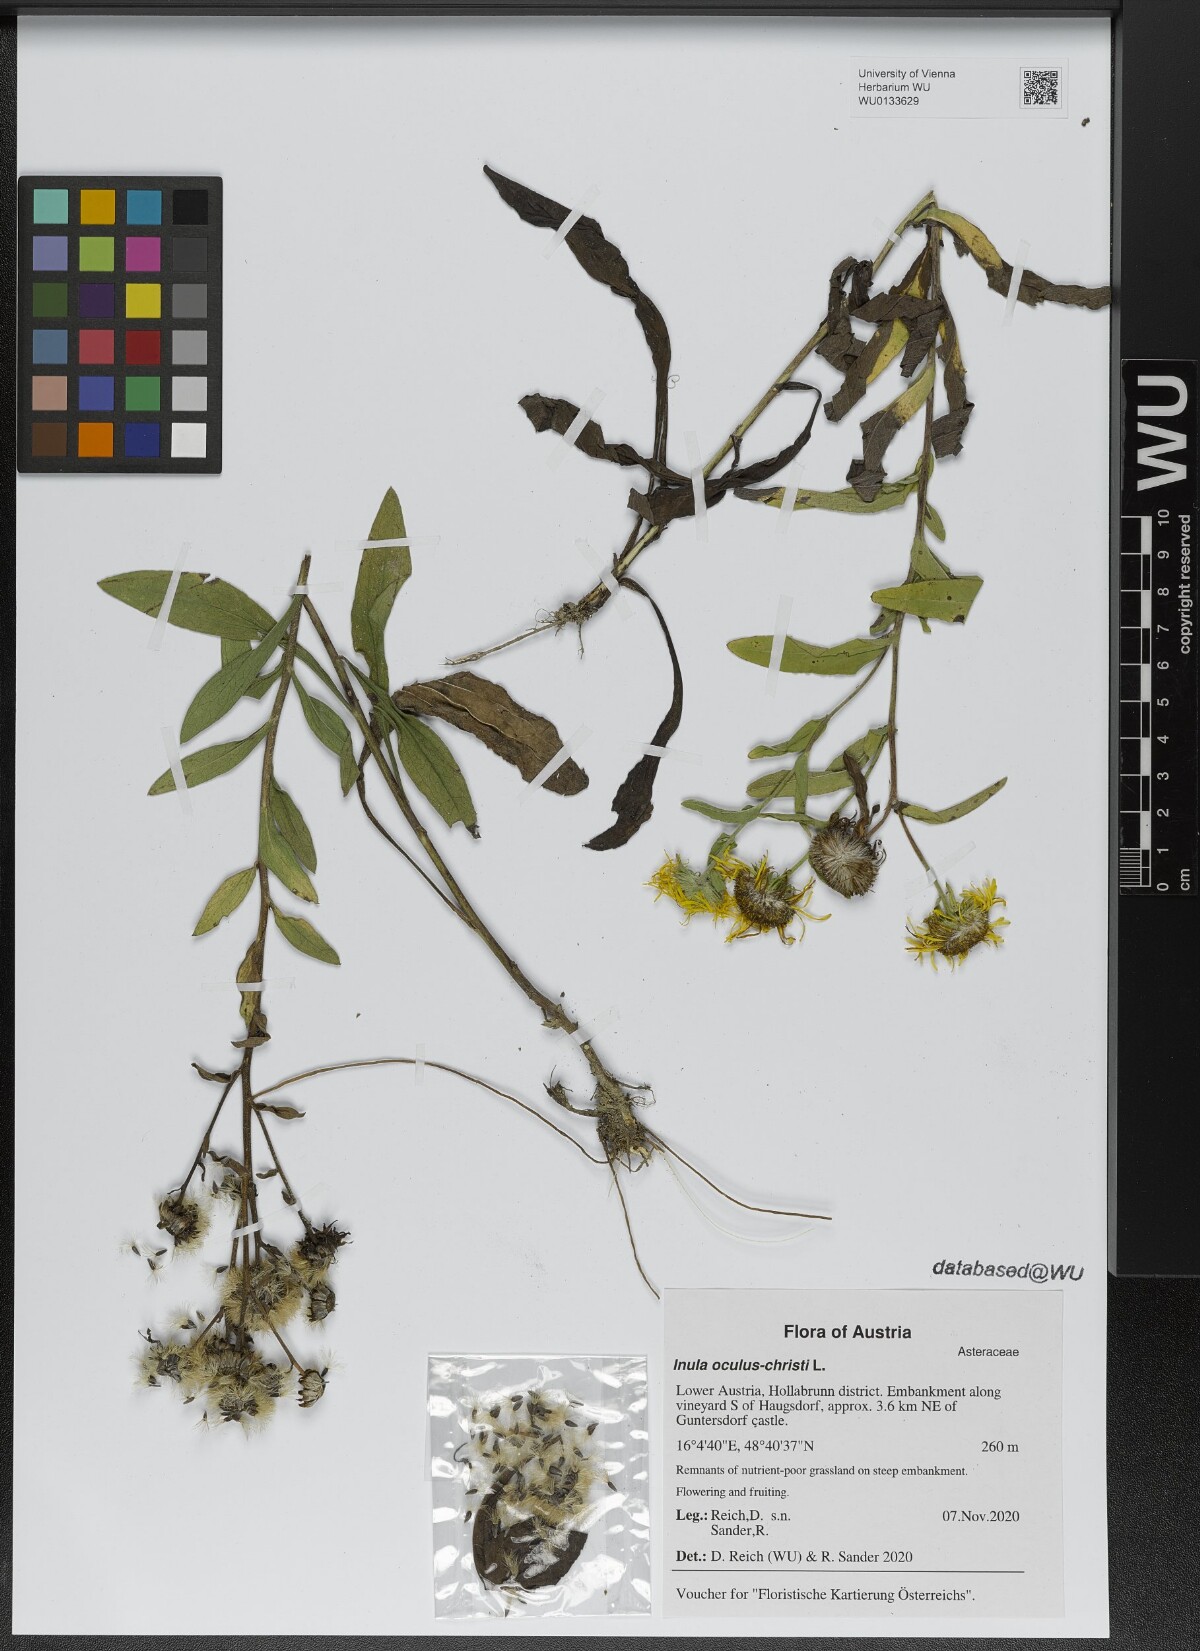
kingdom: Plantae
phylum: Tracheophyta
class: Magnoliopsida
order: Asterales
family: Asteraceae
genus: Pentanema
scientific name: Pentanema oculus-christi
